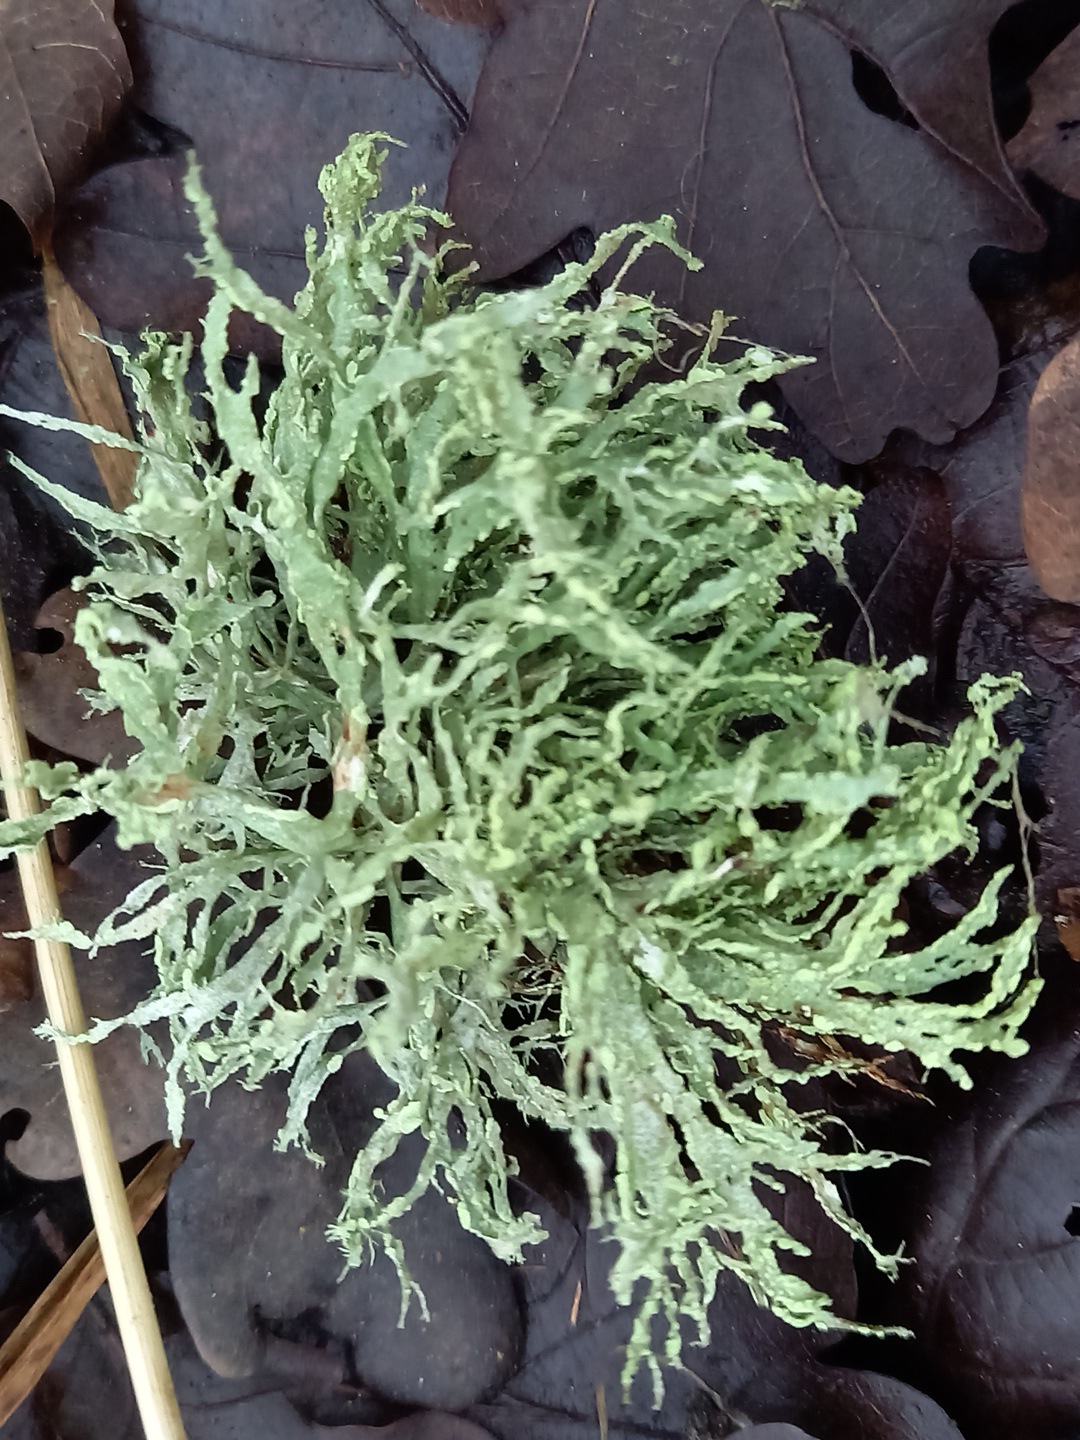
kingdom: Fungi
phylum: Ascomycota
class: Lecanoromycetes
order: Lecanorales
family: Ramalinaceae
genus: Ramalina
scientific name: Ramalina farinacea
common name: melet grenlav
